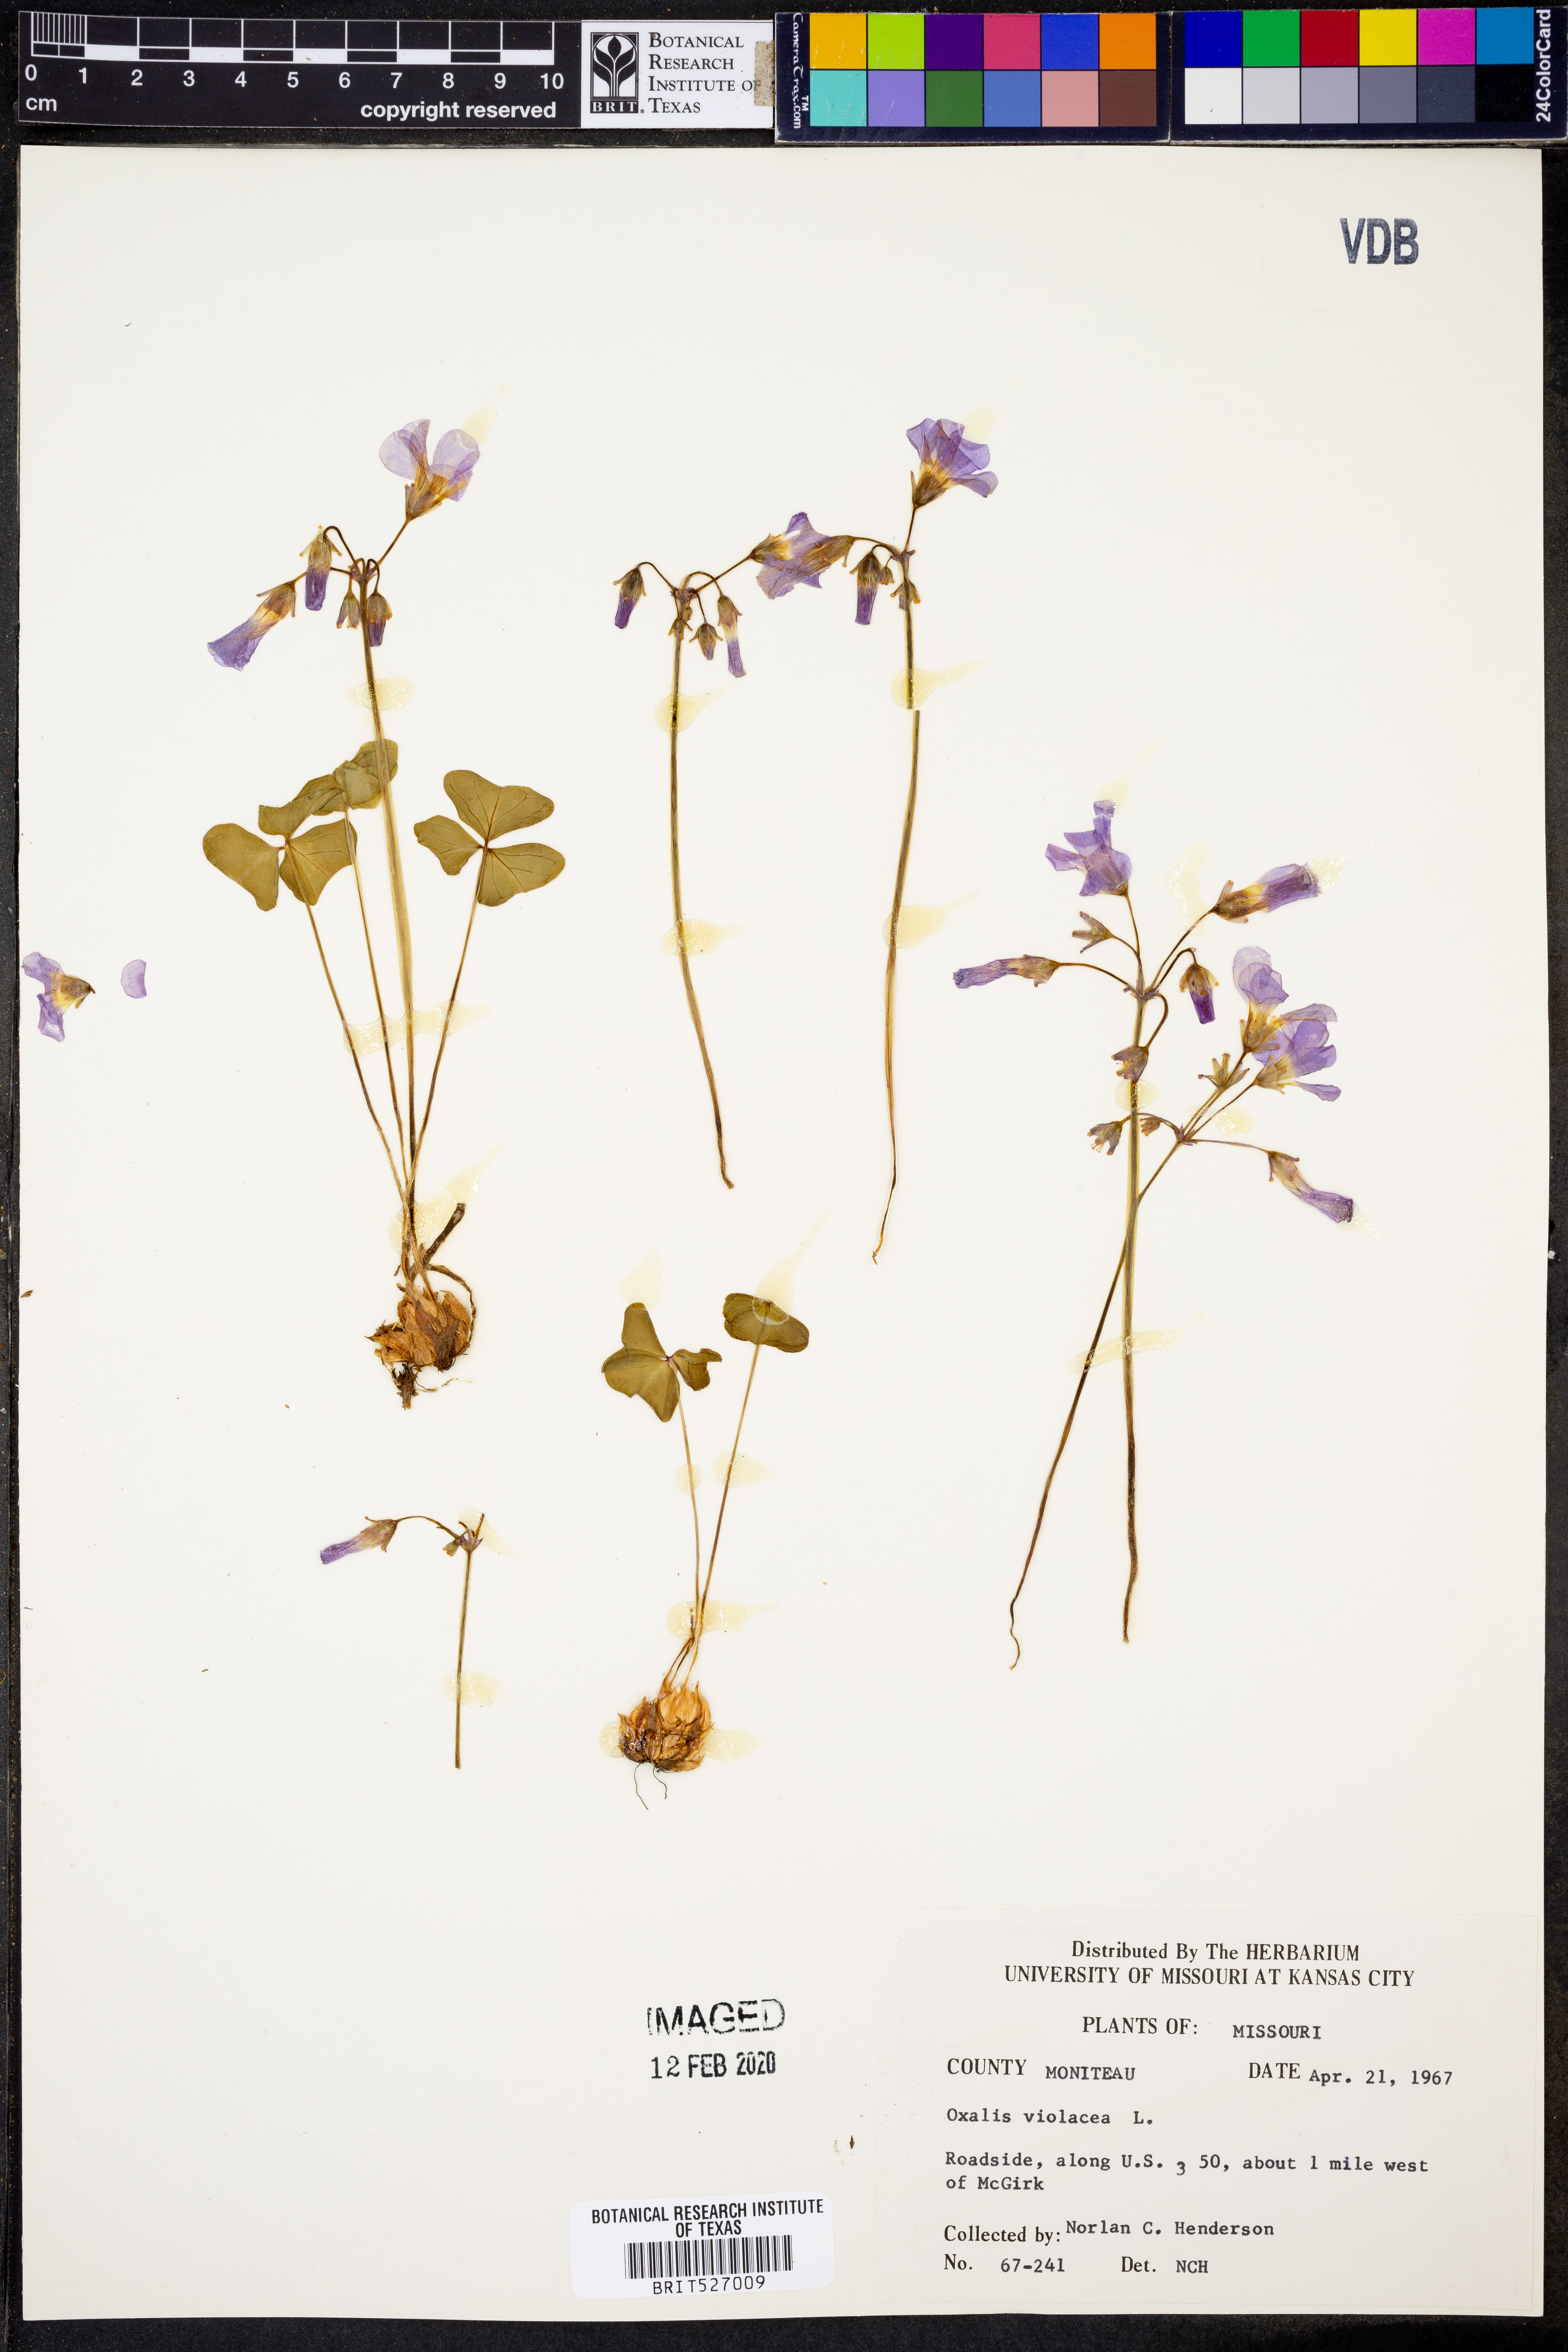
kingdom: Plantae
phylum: Tracheophyta
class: Magnoliopsida
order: Oxalidales
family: Oxalidaceae
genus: Oxalis
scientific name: Oxalis violacea
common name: Violet wood-sorrel
